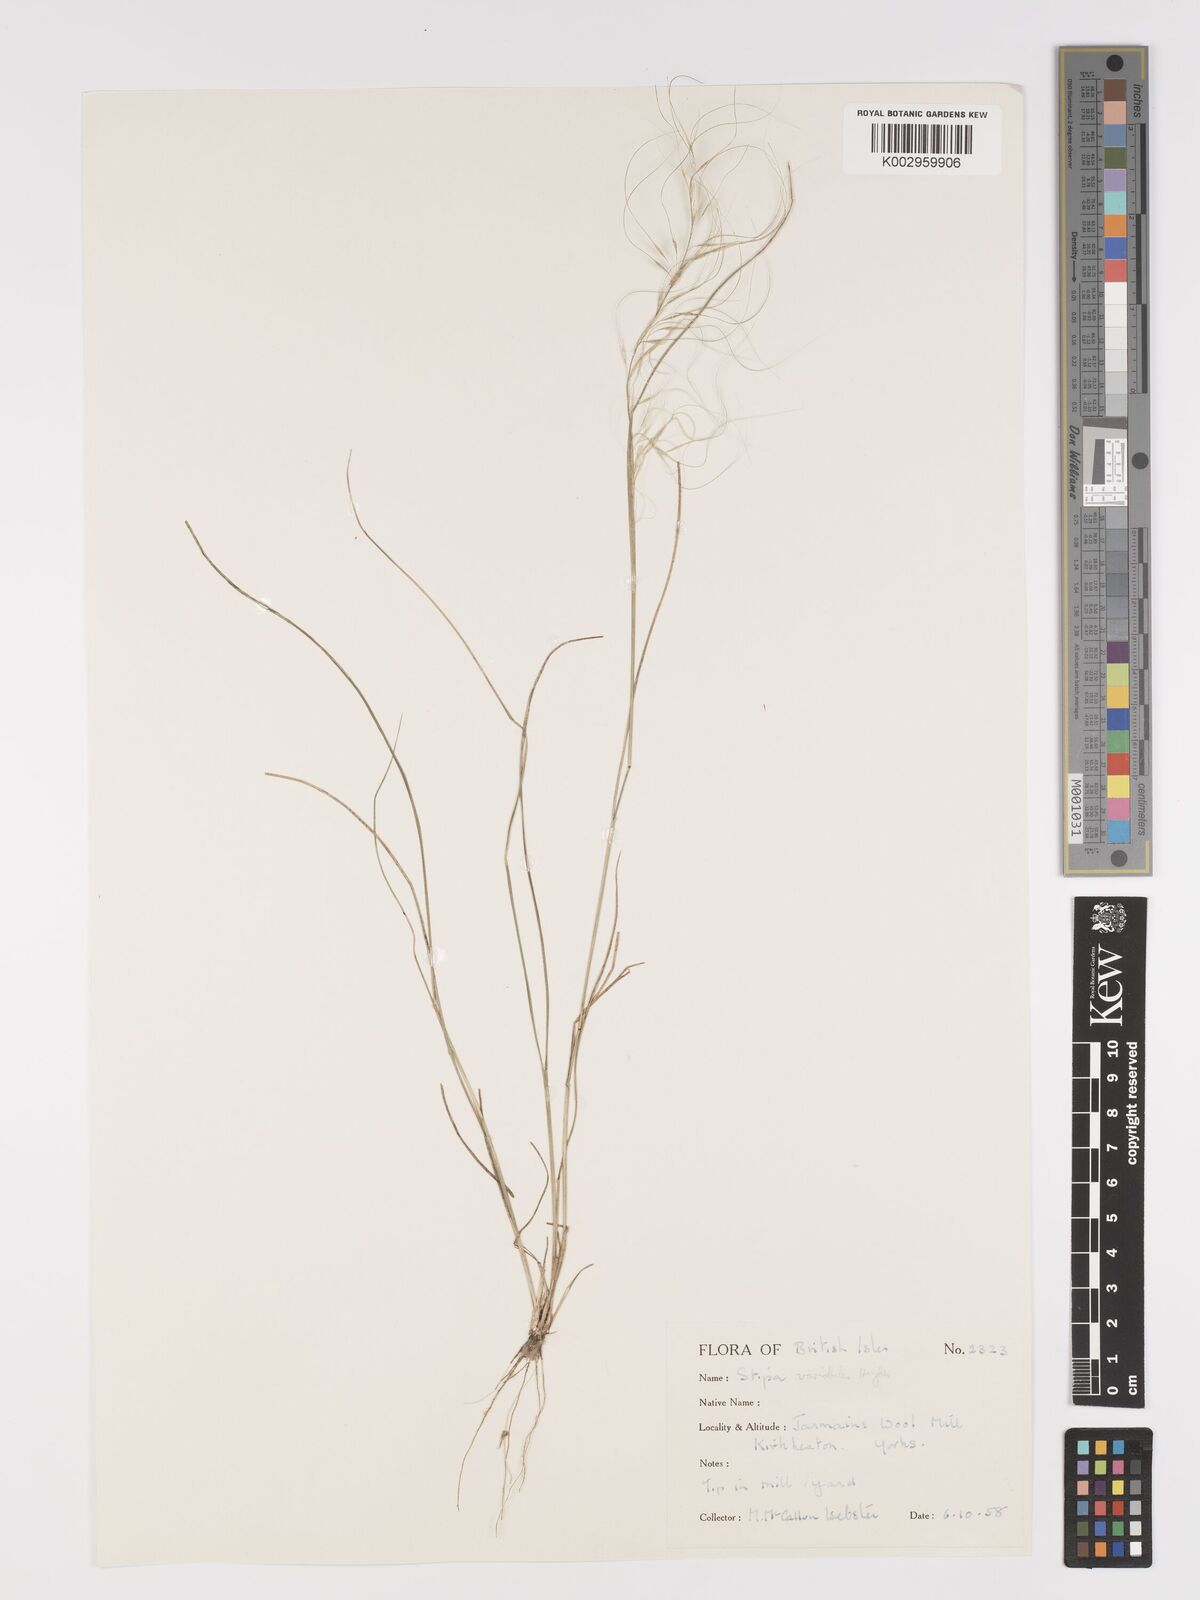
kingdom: Plantae
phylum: Tracheophyta
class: Liliopsida
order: Poales
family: Poaceae
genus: Austrostipa
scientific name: Austrostipa variabilis
